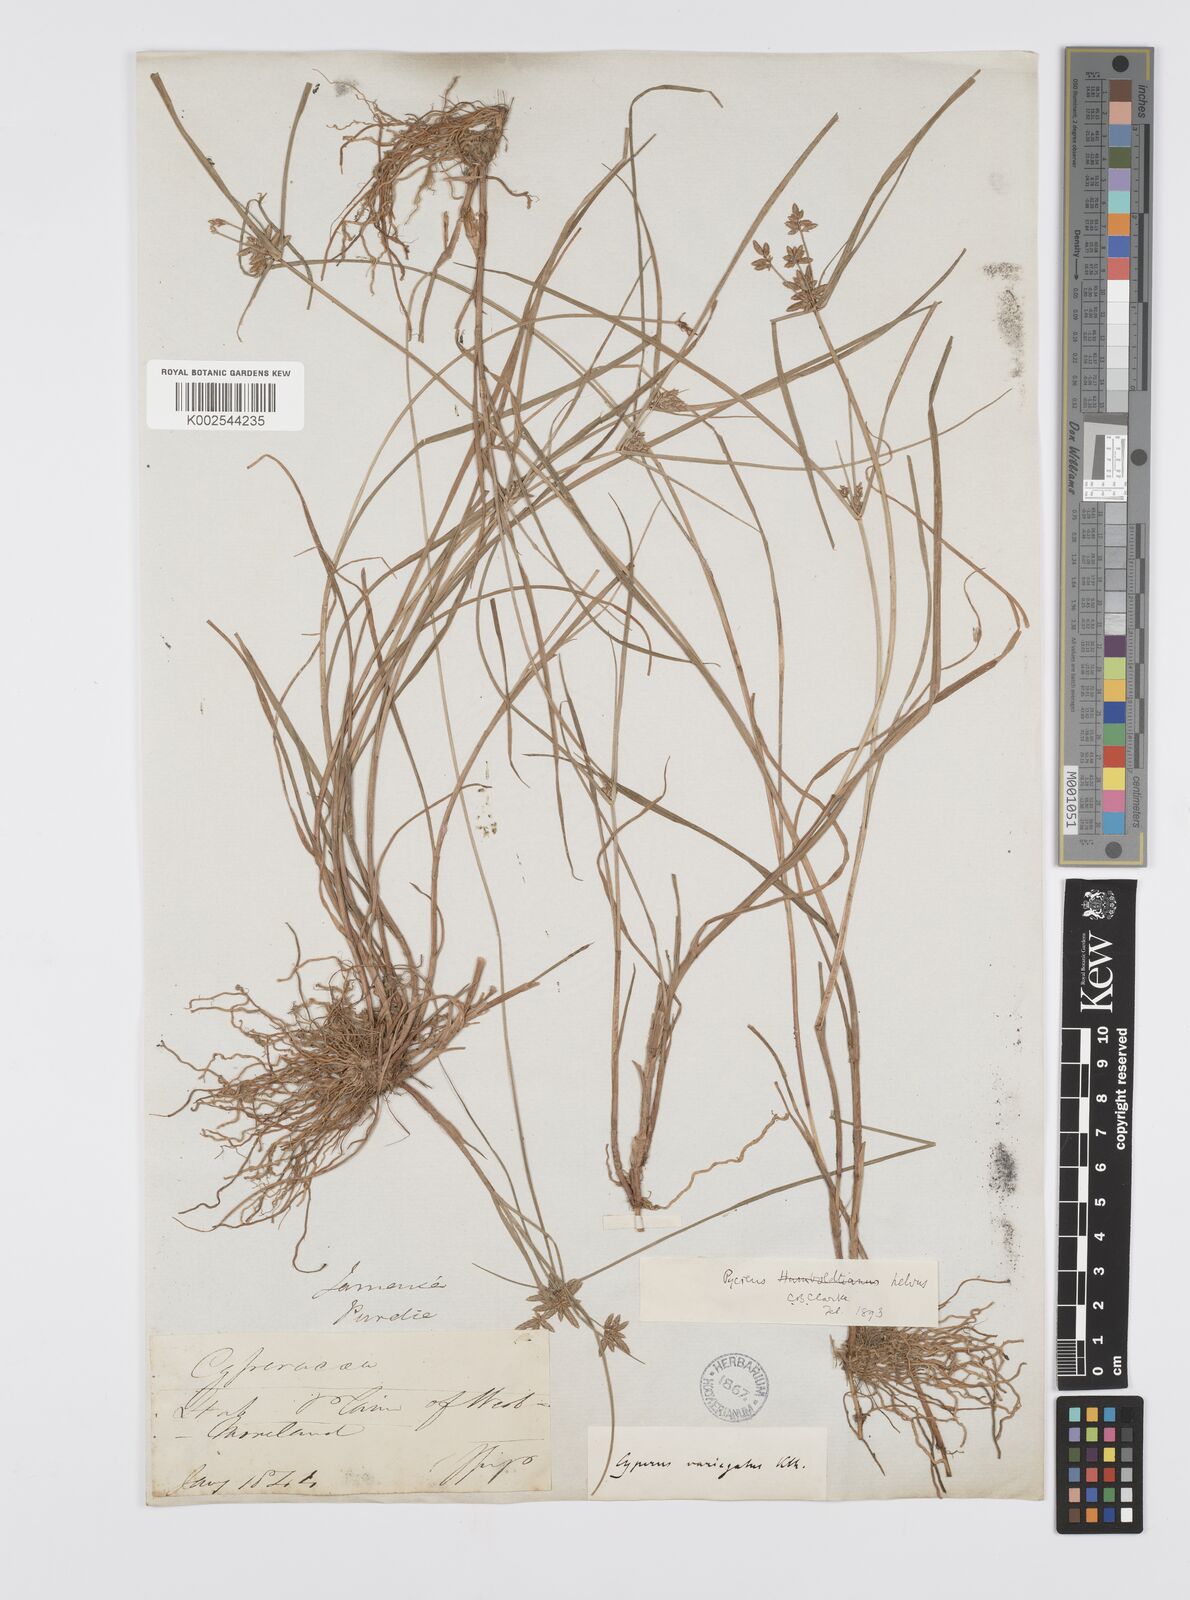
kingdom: Plantae
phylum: Tracheophyta
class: Liliopsida
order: Poales
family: Cyperaceae
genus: Cyperus
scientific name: Cyperus lanceolatus
